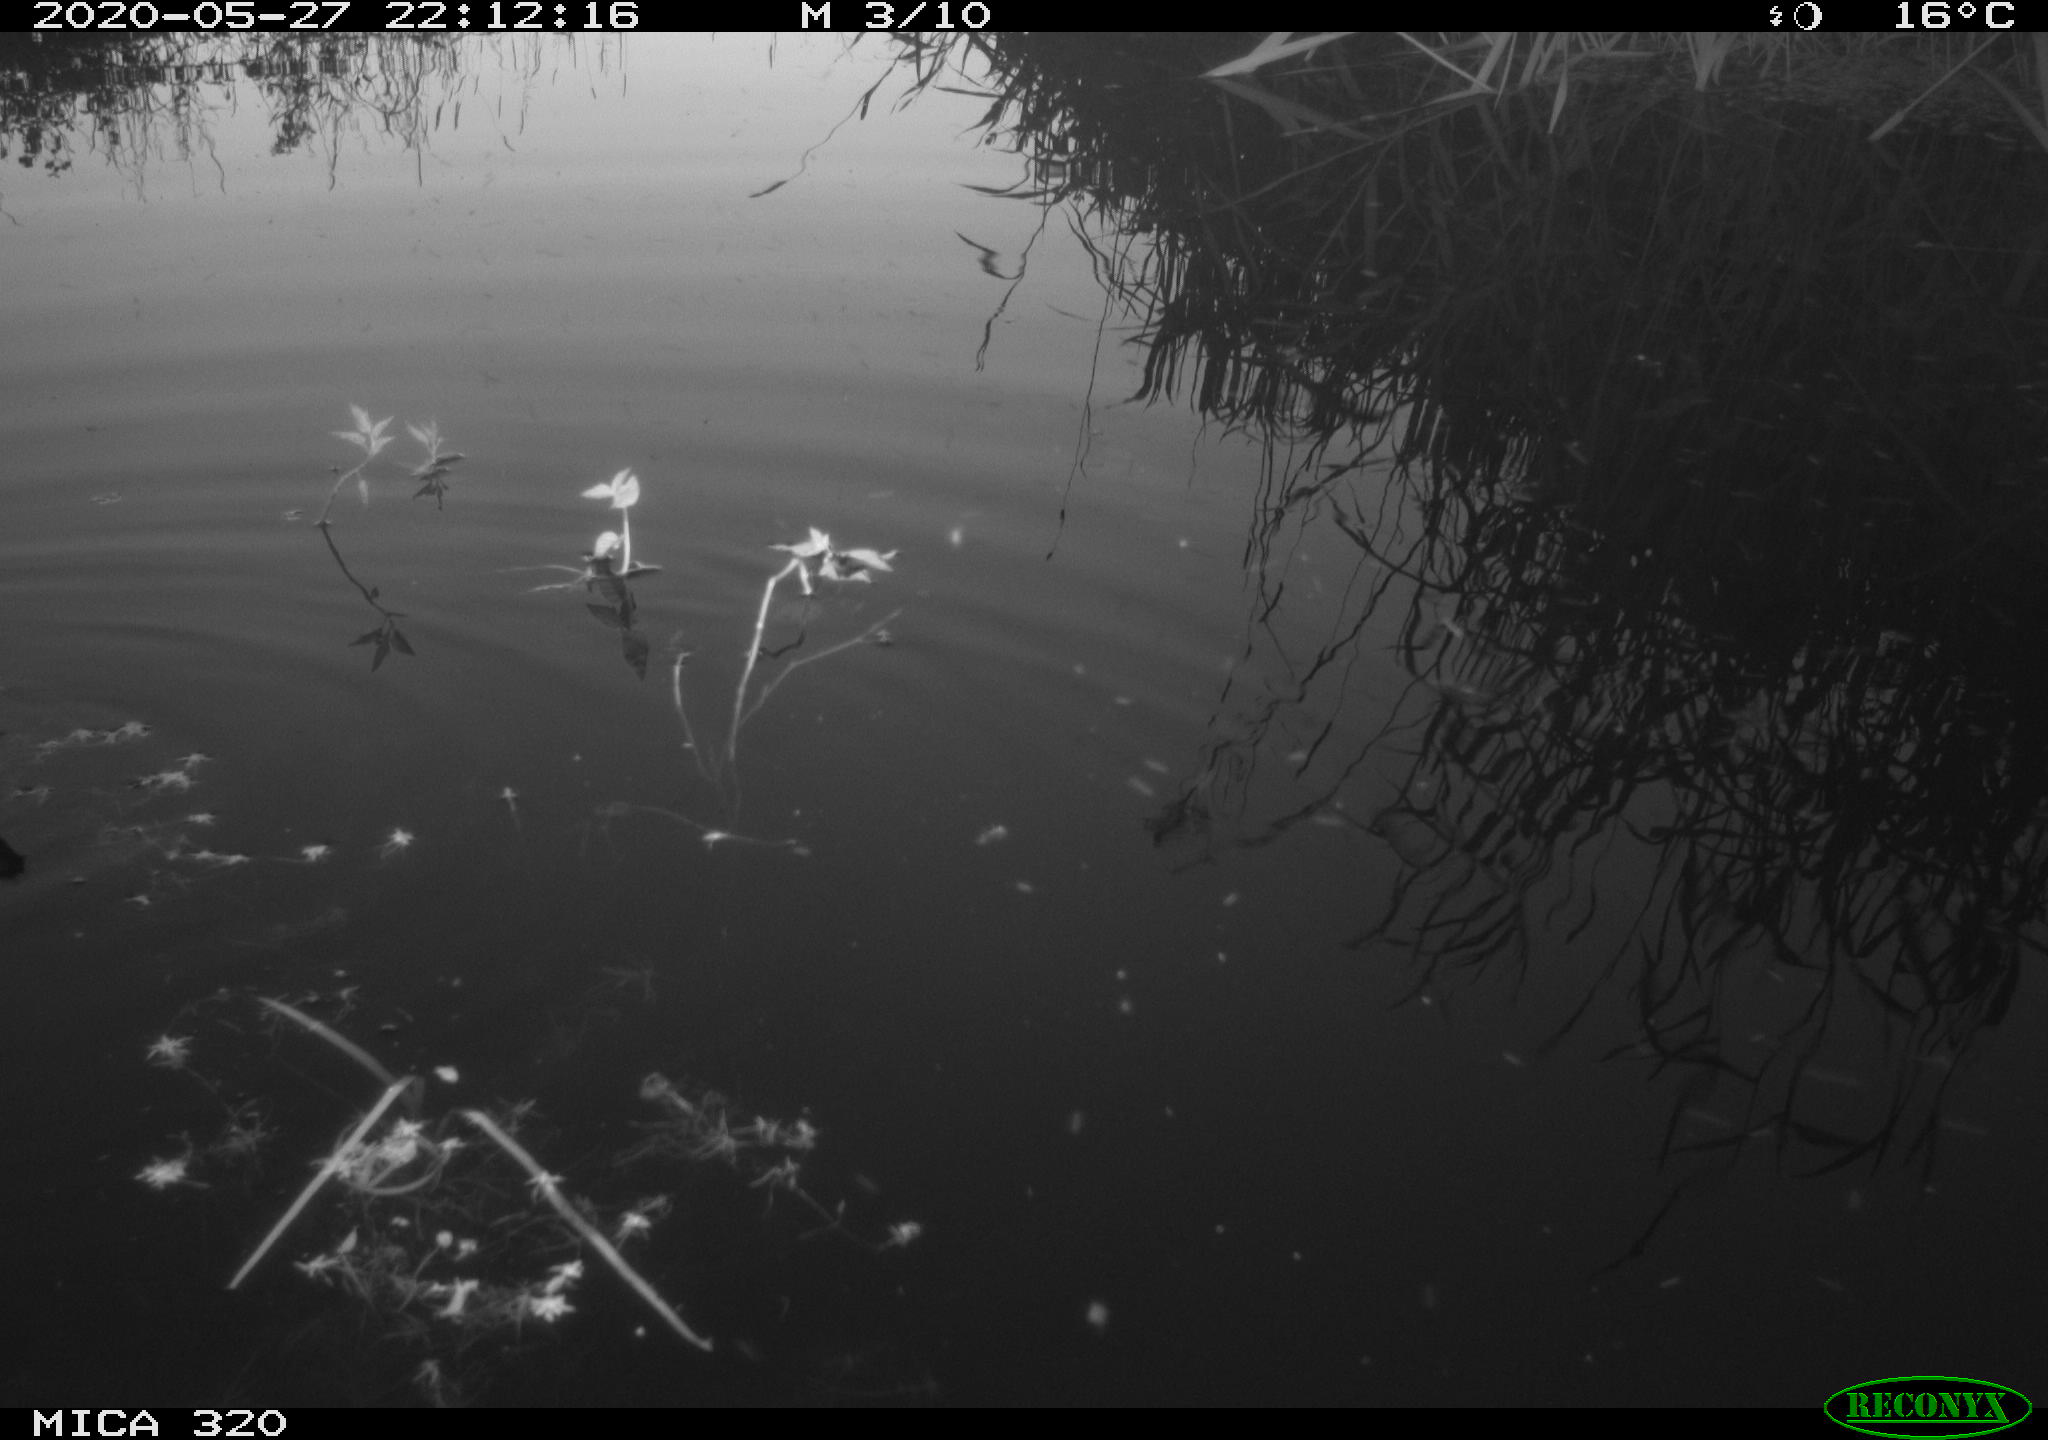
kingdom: Animalia
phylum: Chordata
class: Aves
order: Gruiformes
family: Rallidae
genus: Gallinula
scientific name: Gallinula chloropus
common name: Common moorhen
